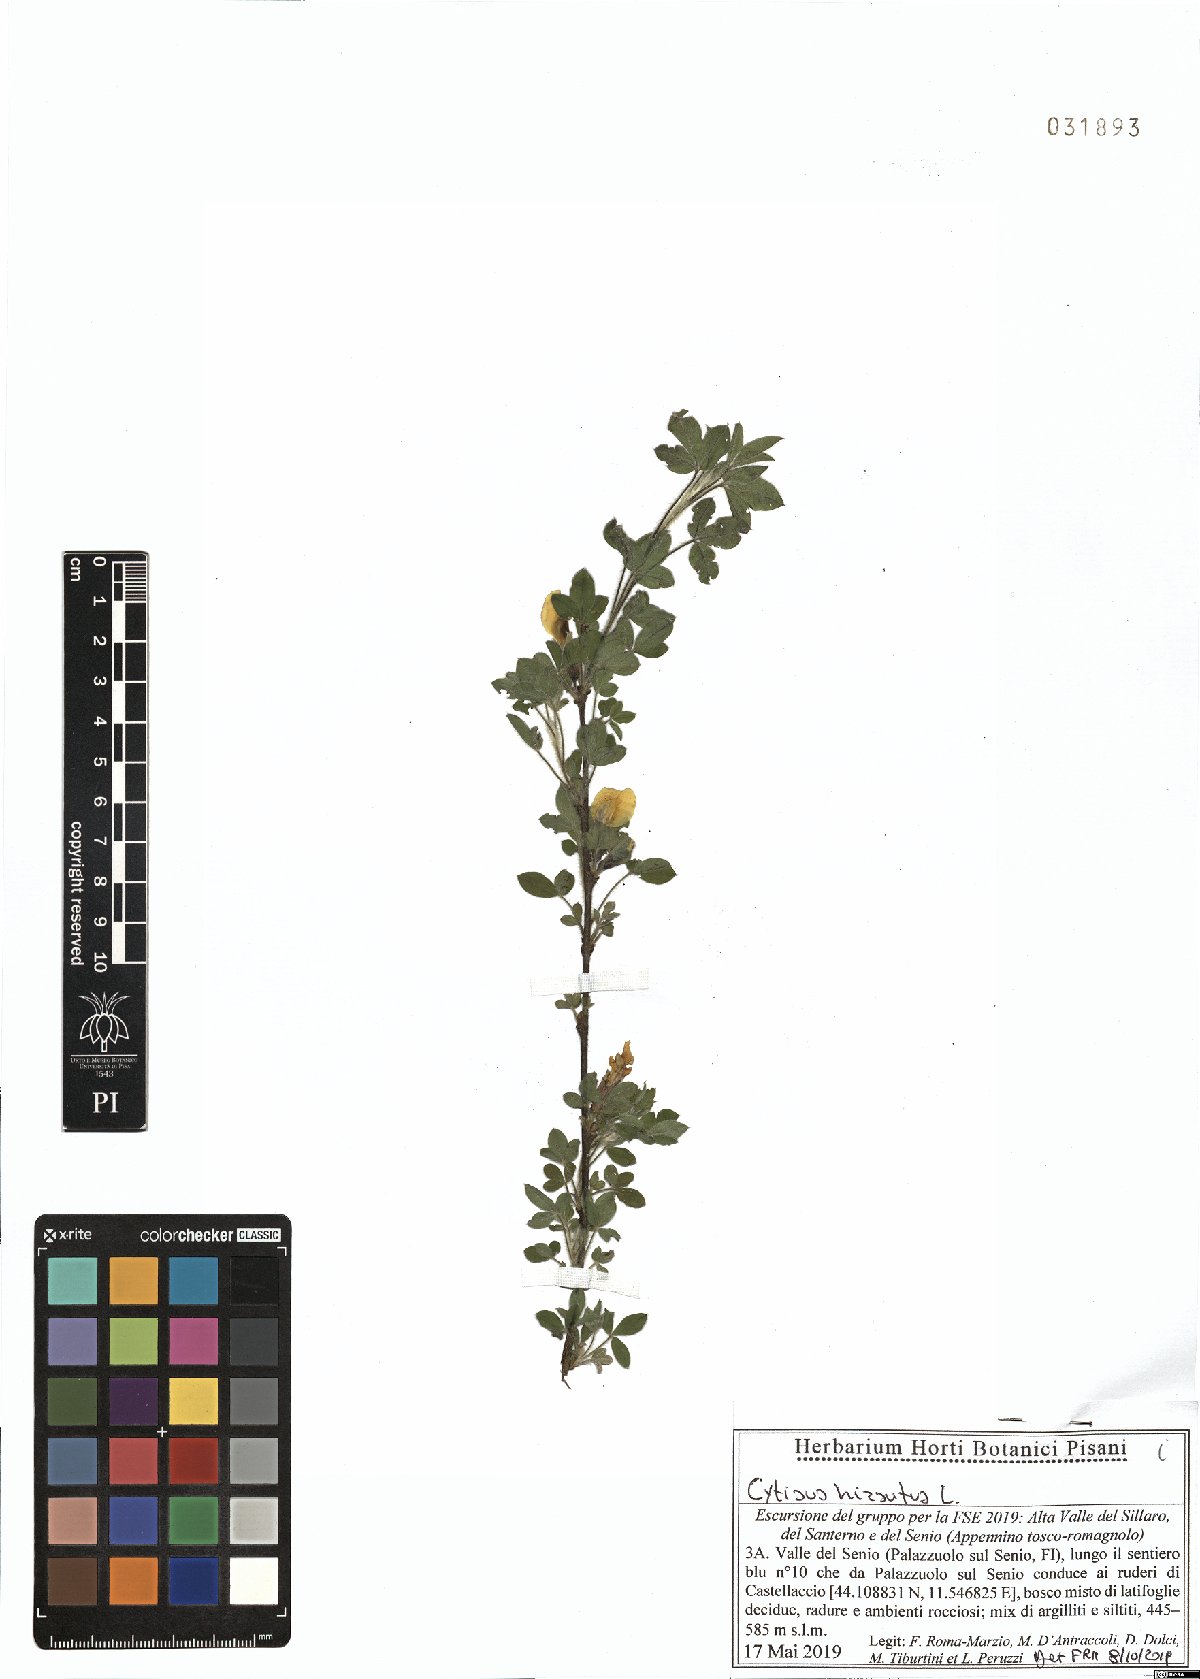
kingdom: Plantae
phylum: Tracheophyta
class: Magnoliopsida
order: Fabales
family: Fabaceae
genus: Chamaecytisus
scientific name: Chamaecytisus hirsutus
